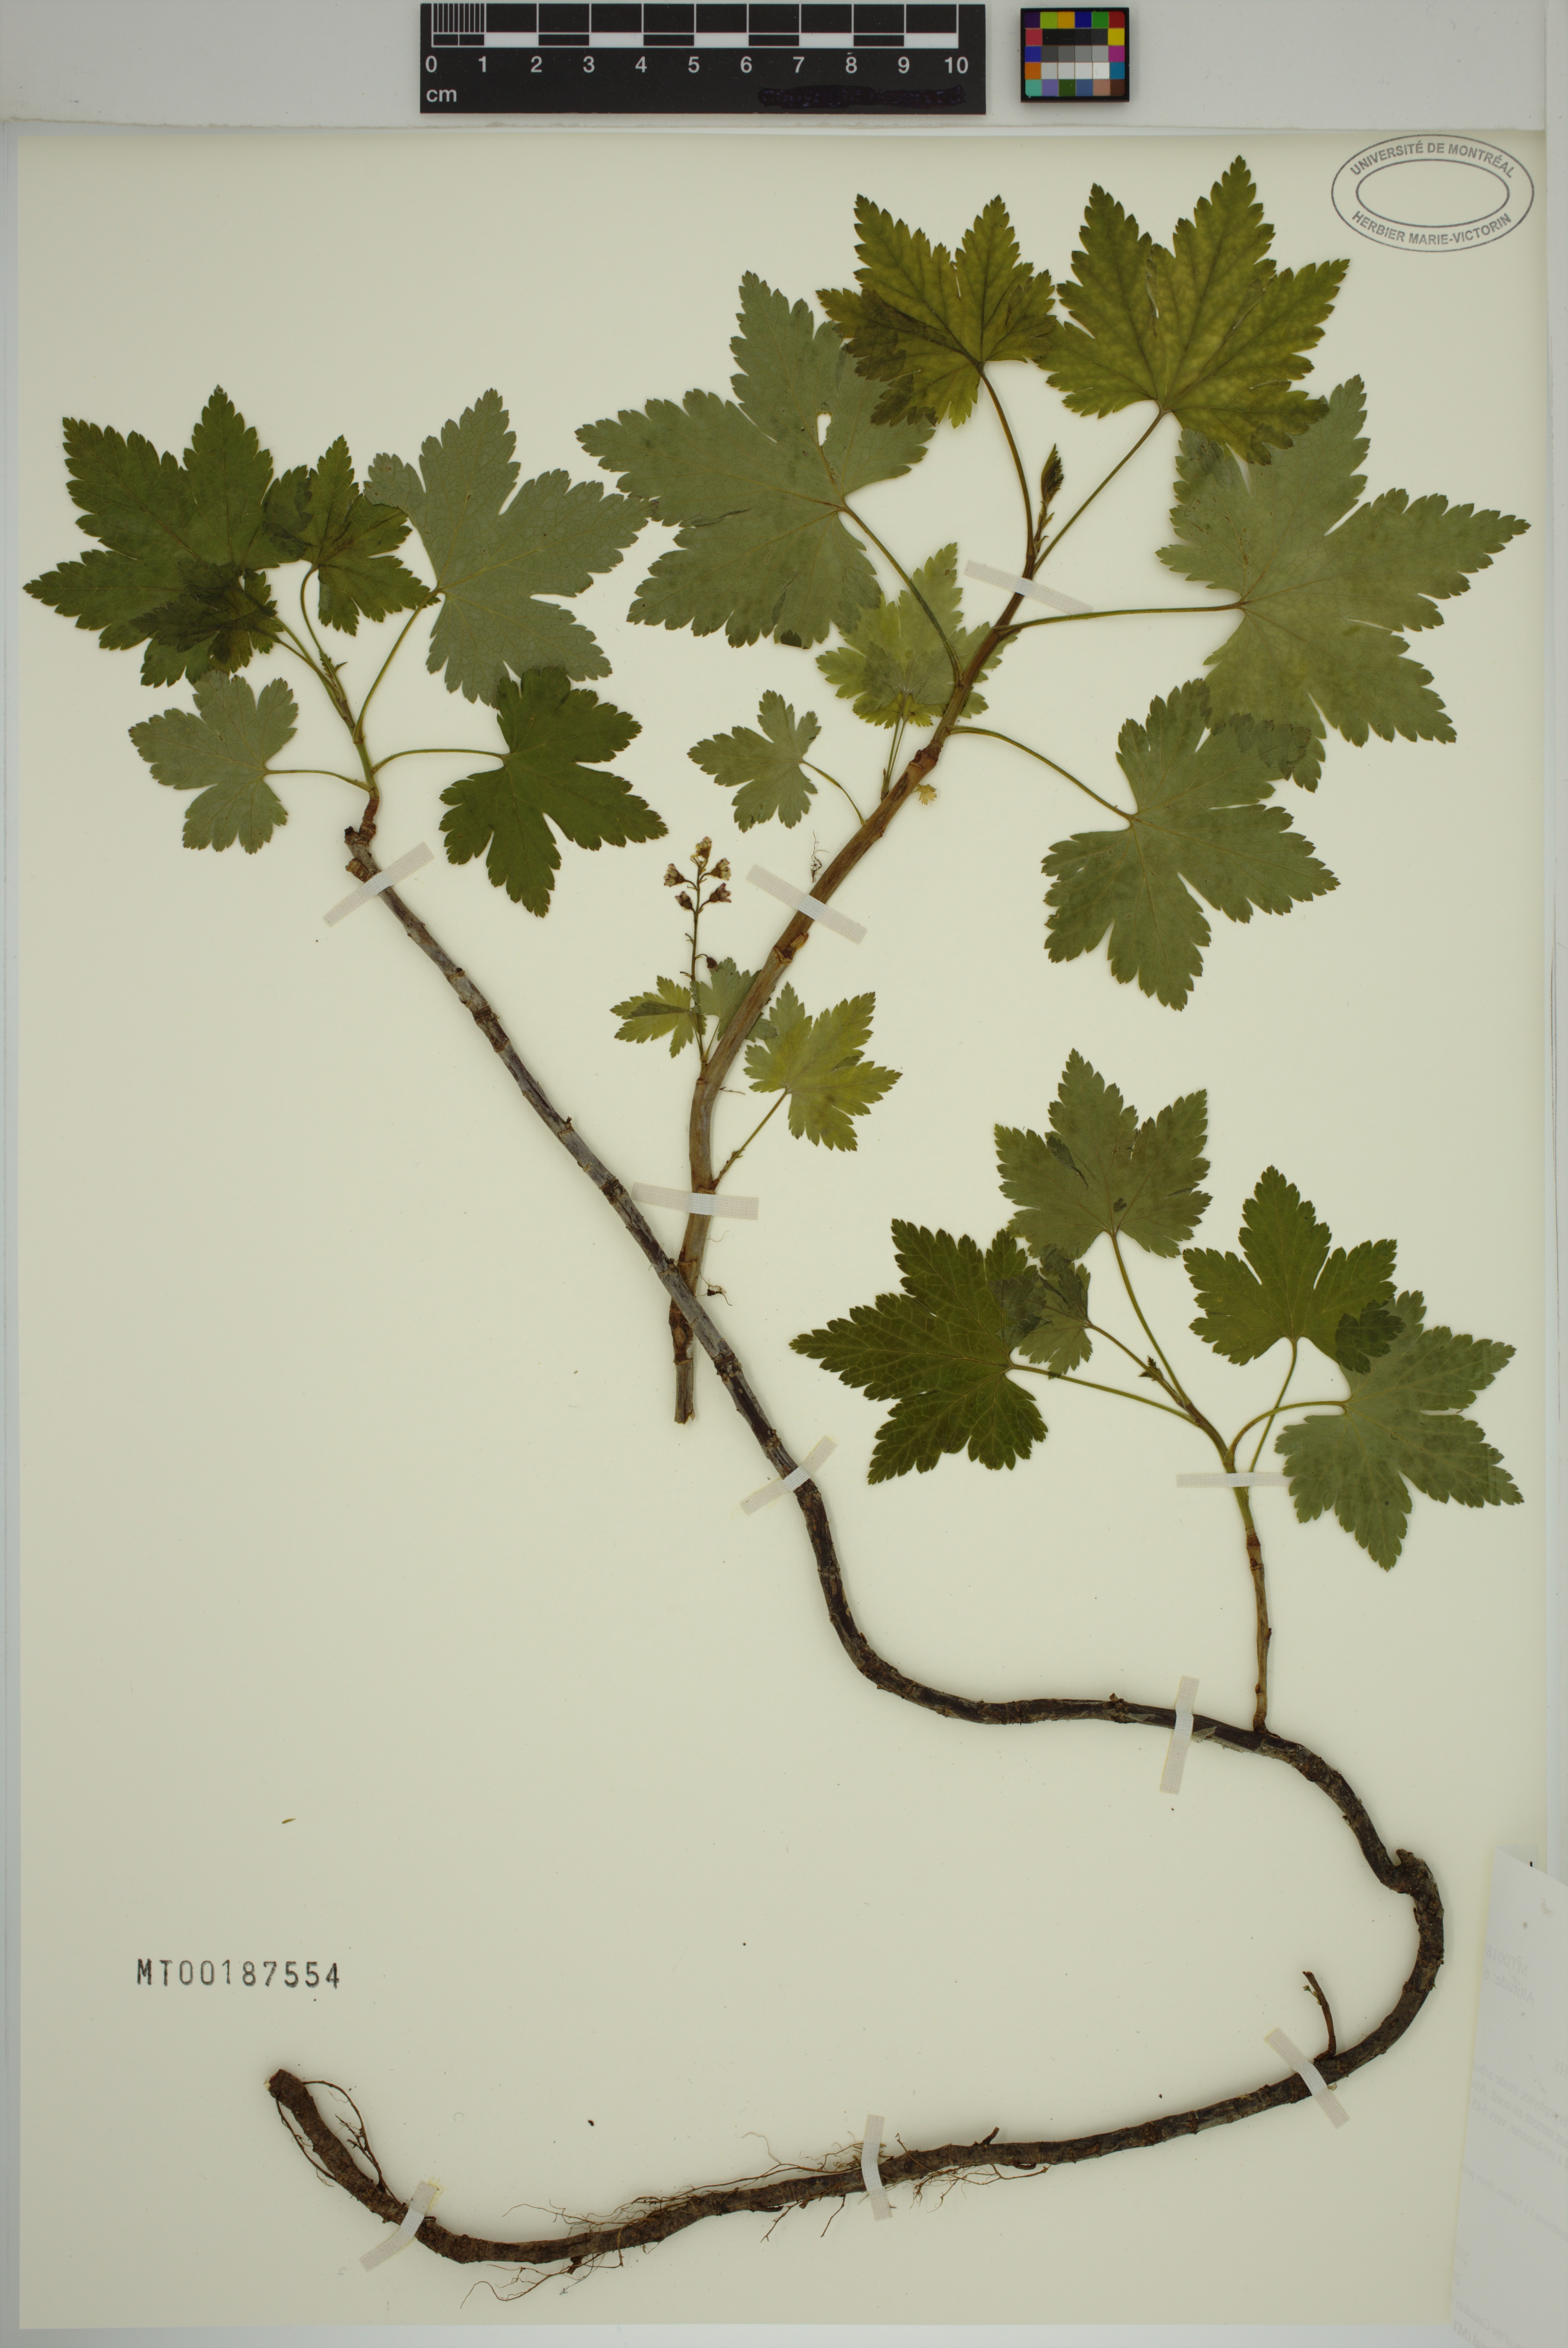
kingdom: Plantae
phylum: Tracheophyta
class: Magnoliopsida
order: Saxifragales
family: Grossulariaceae
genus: Ribes
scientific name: Ribes glandulosum
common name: Skunk currant
